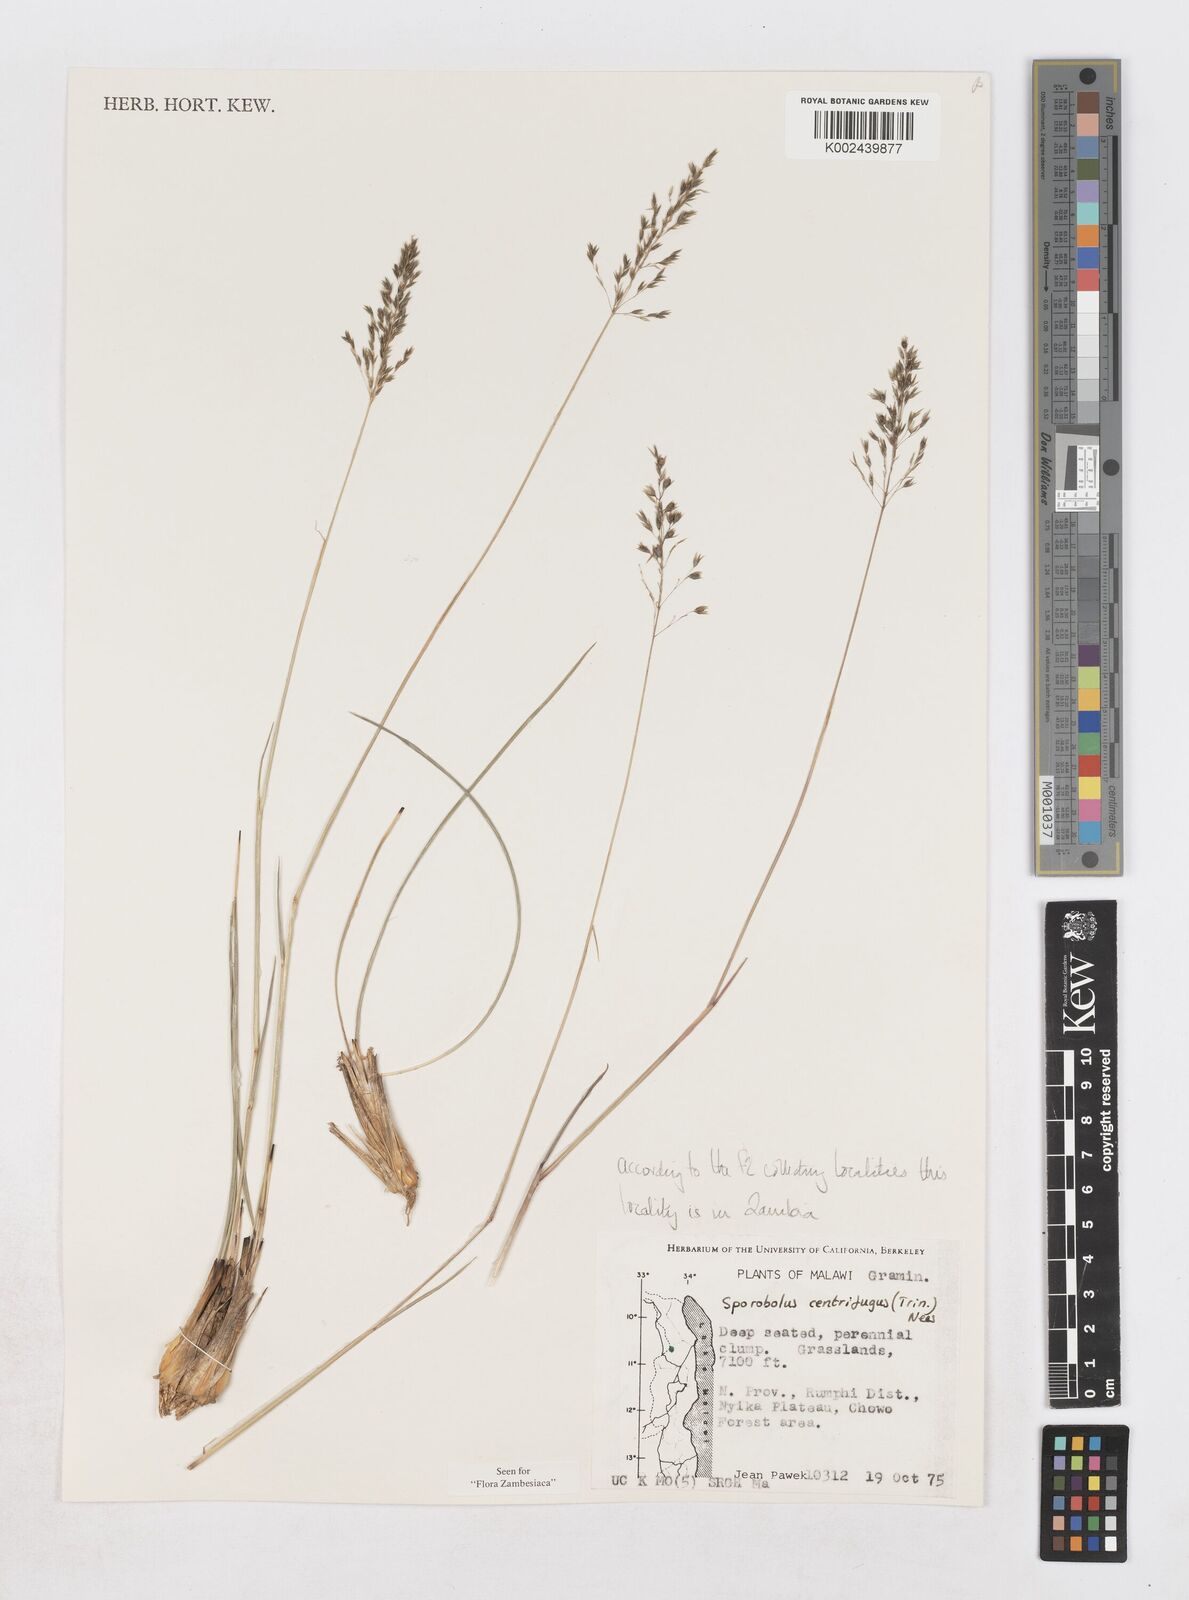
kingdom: Plantae
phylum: Tracheophyta
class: Liliopsida
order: Poales
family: Poaceae
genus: Sporobolus
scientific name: Sporobolus centrifugus
